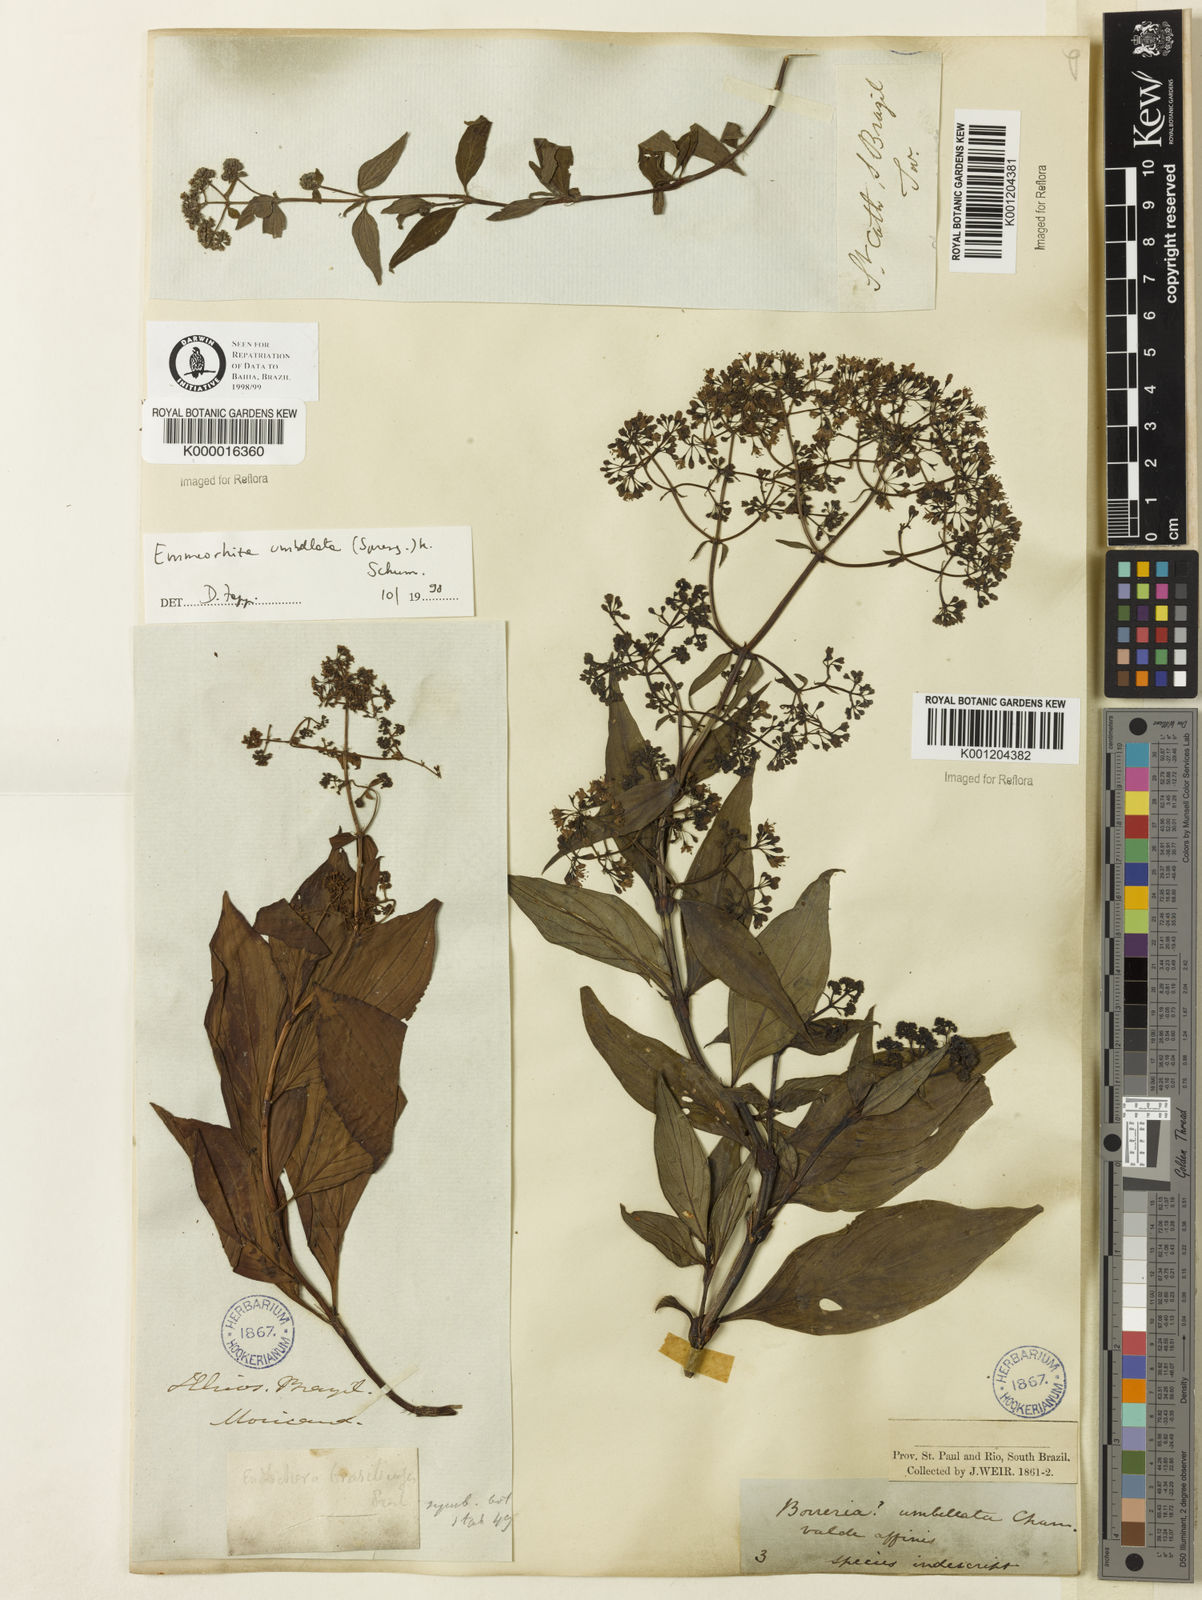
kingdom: Plantae
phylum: Tracheophyta
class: Magnoliopsida
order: Gentianales
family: Rubiaceae
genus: Emmeorhiza
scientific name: Emmeorhiza umbellata
